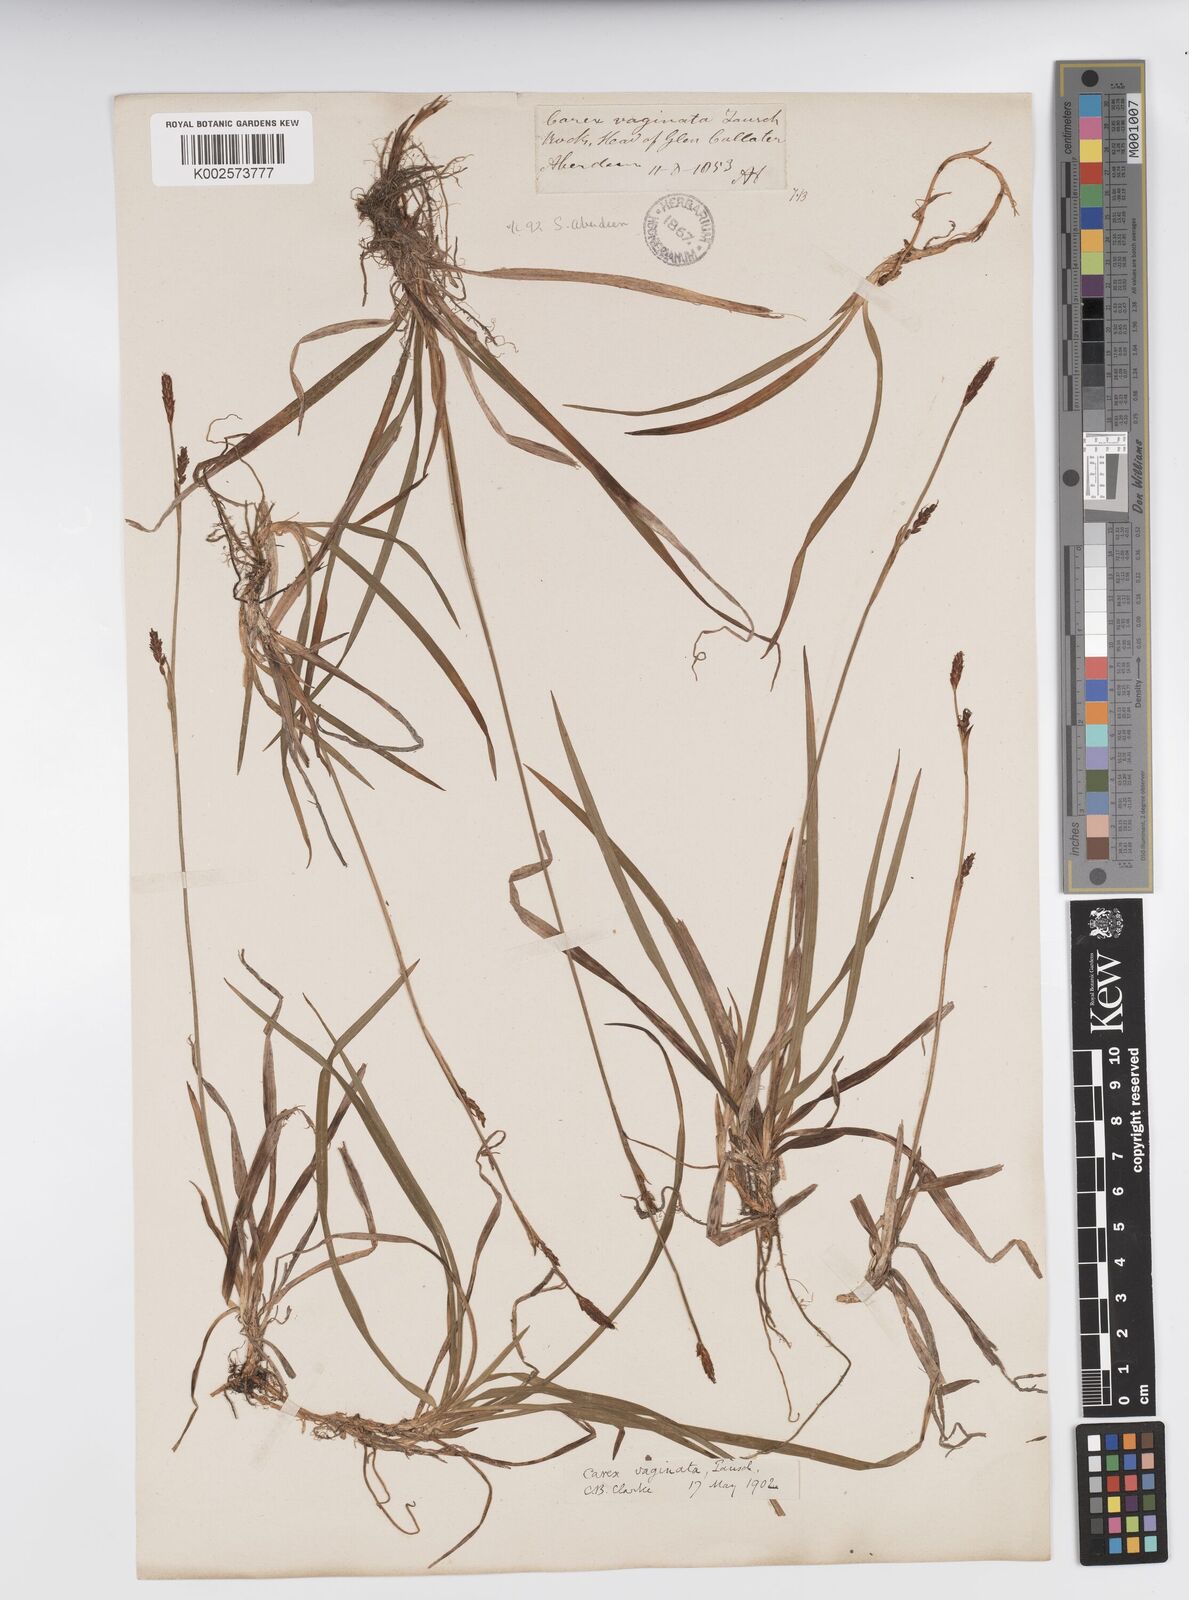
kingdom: Plantae
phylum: Tracheophyta
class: Liliopsida
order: Poales
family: Cyperaceae
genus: Carex
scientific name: Carex vaginata
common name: Sheathed sedge
